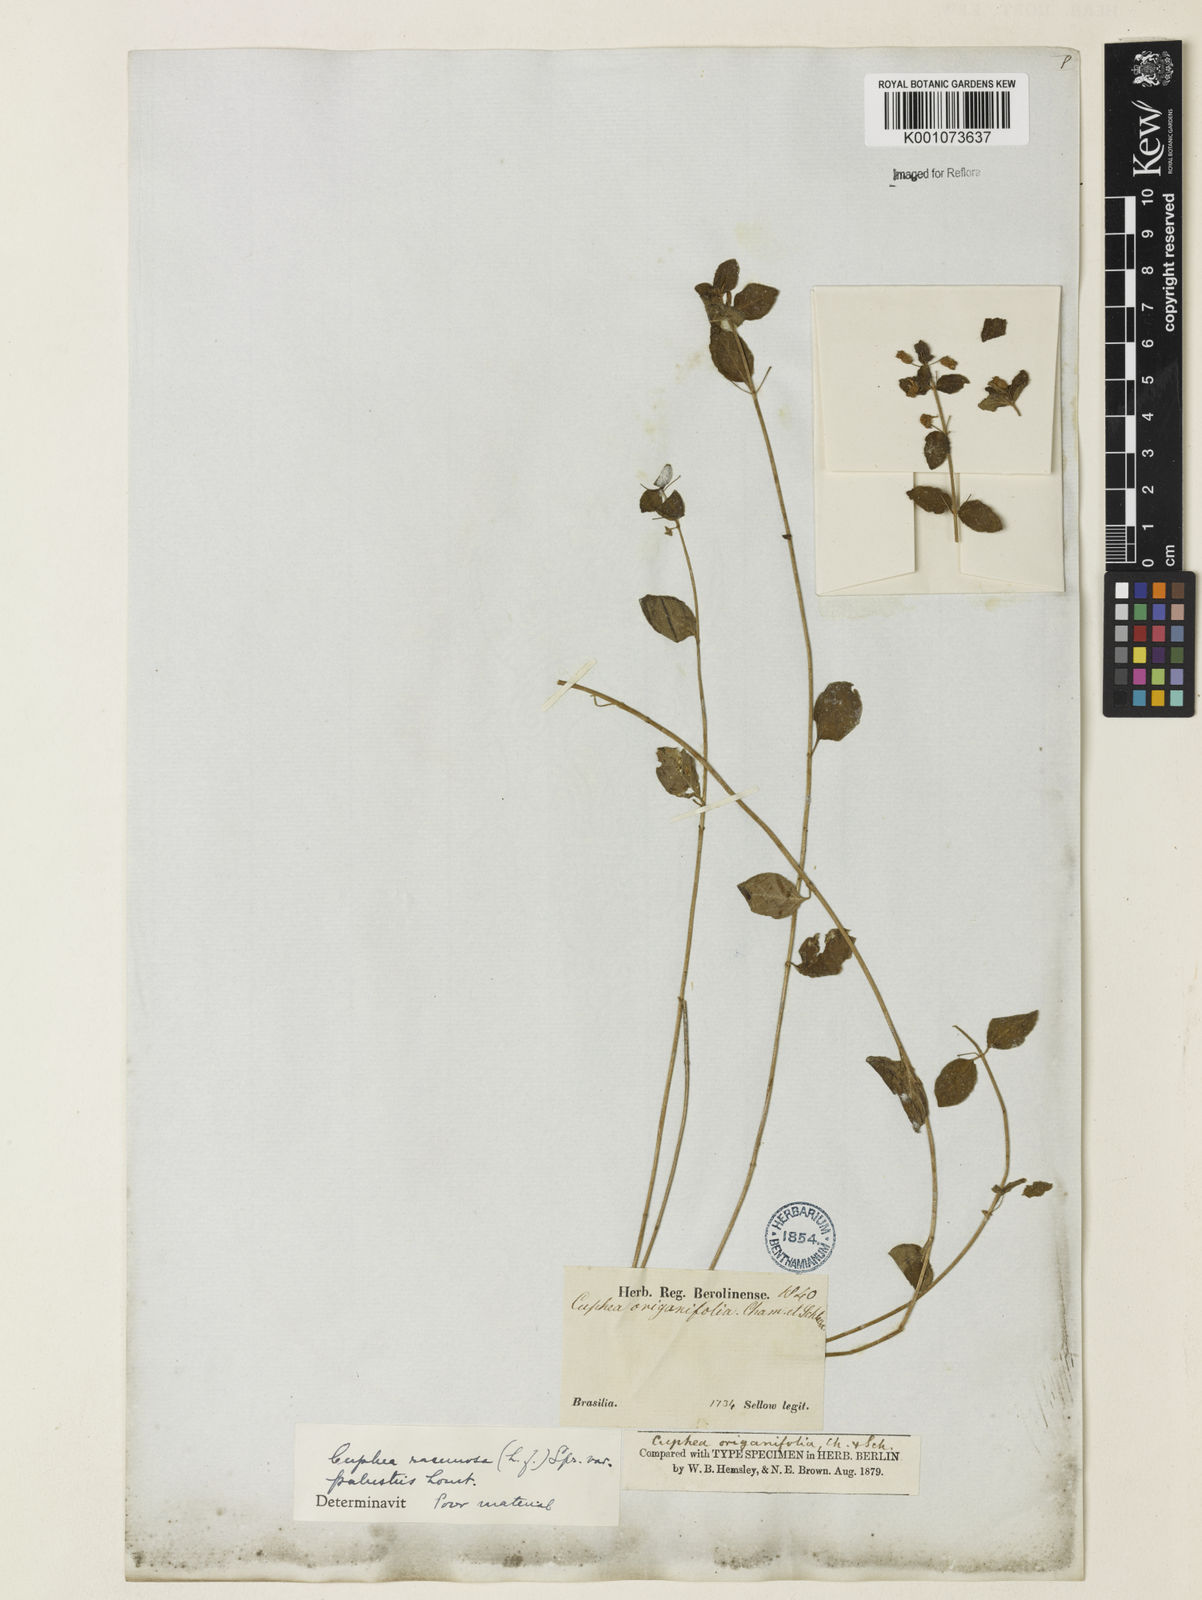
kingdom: Plantae
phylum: Tracheophyta
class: Magnoliopsida
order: Myrtales
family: Lythraceae
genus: Cuphea
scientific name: Cuphea racemosa
